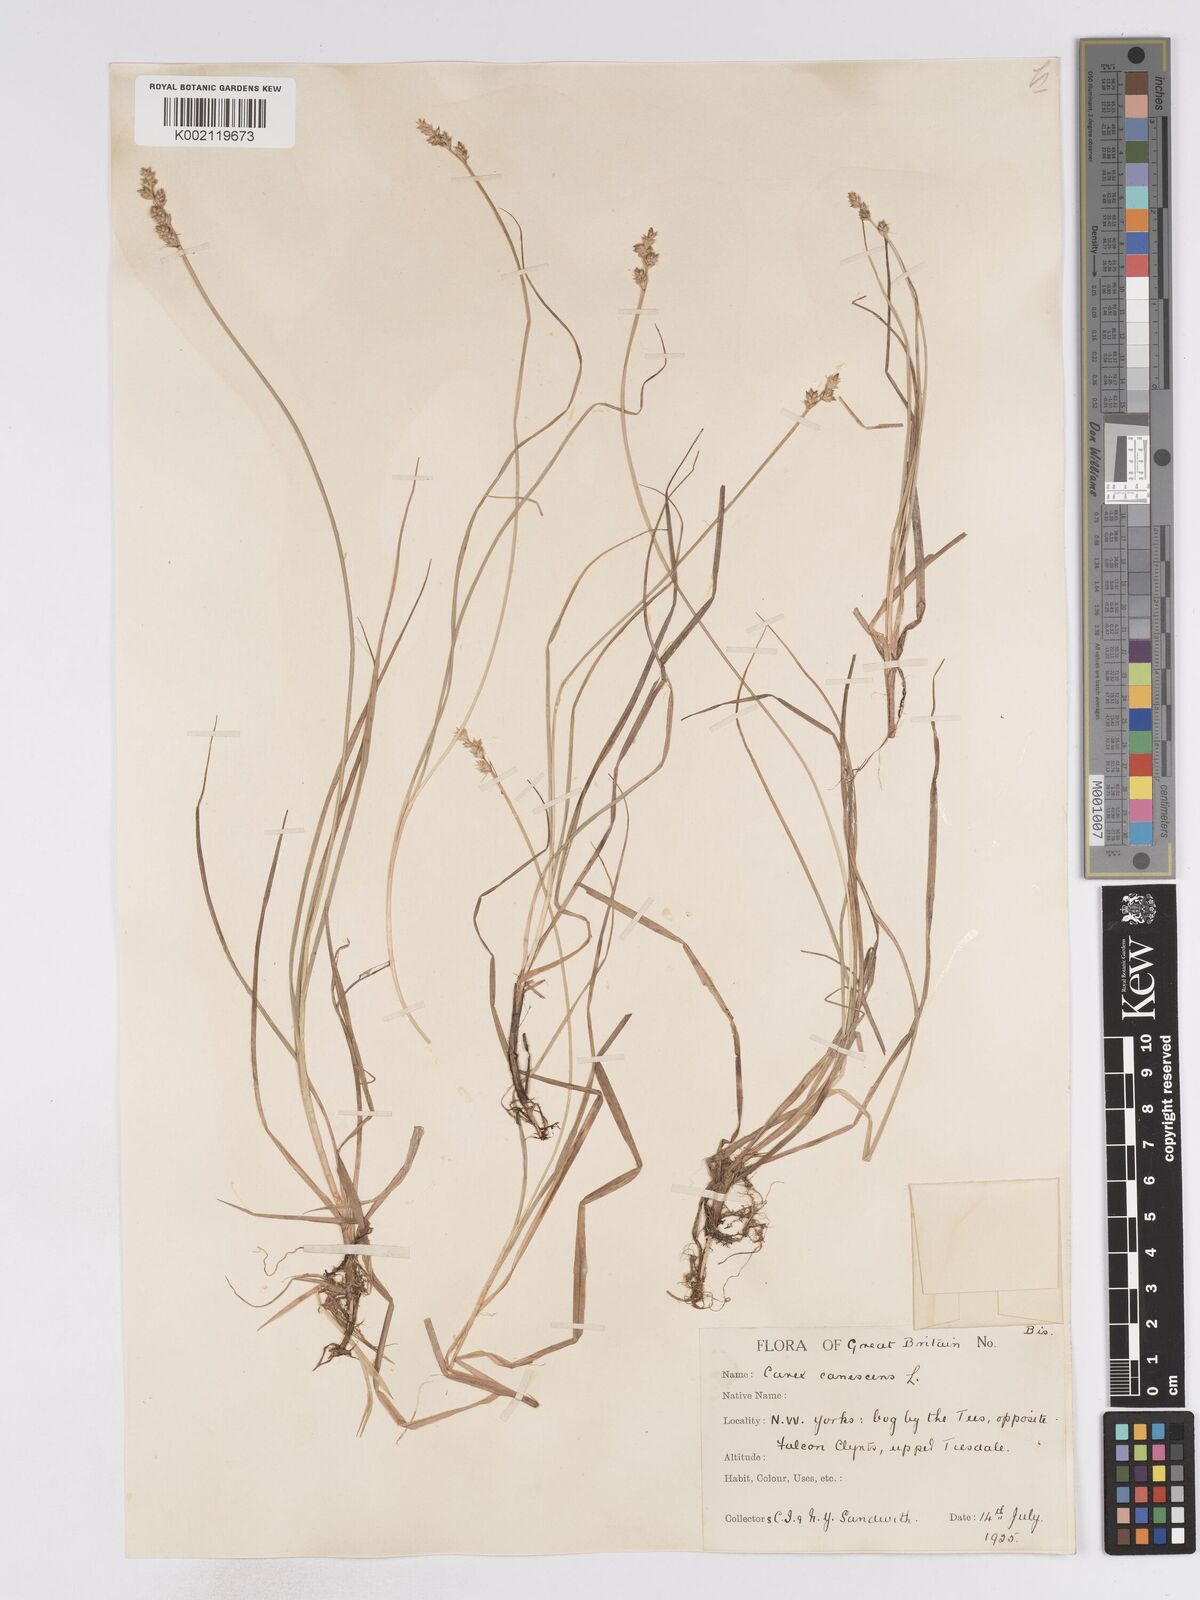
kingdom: Plantae
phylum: Tracheophyta
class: Liliopsida
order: Poales
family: Cyperaceae
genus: Carex
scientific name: Carex curta
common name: White sedge
